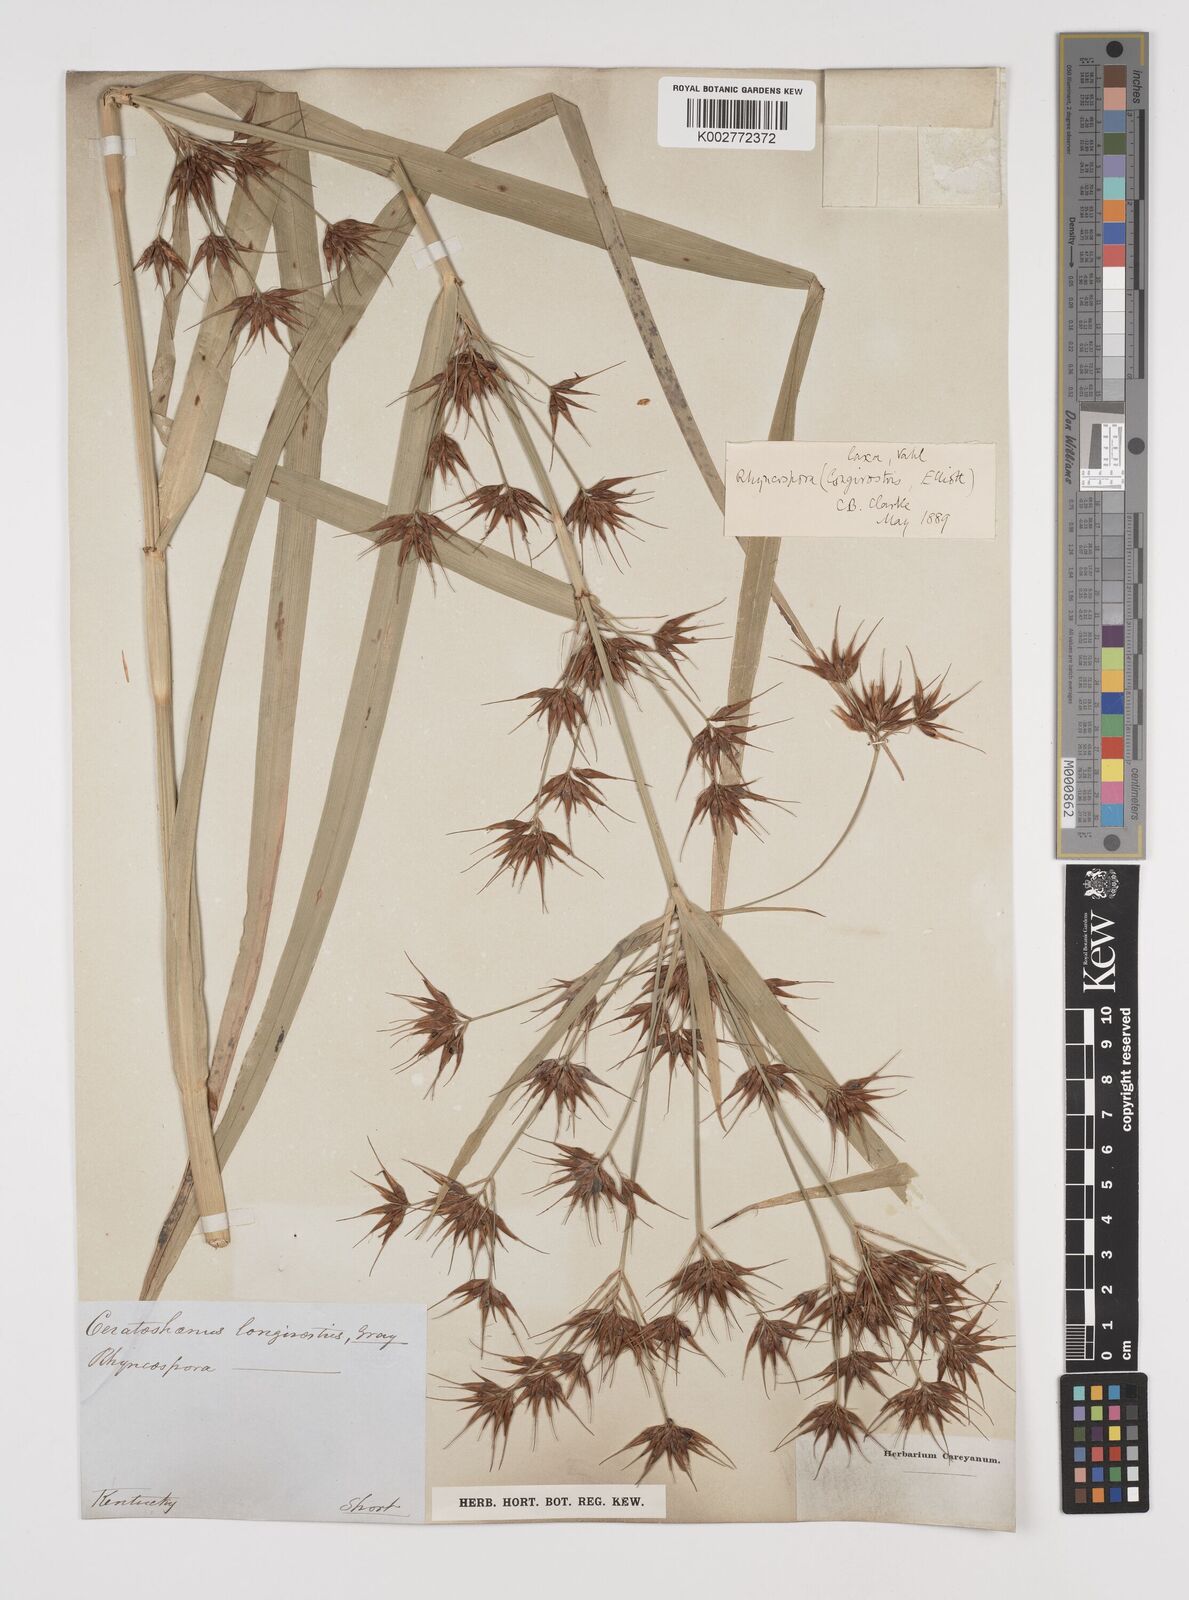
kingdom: Plantae
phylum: Tracheophyta
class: Liliopsida
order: Poales
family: Cyperaceae
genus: Rhynchospora
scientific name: Rhynchospora corniculata
